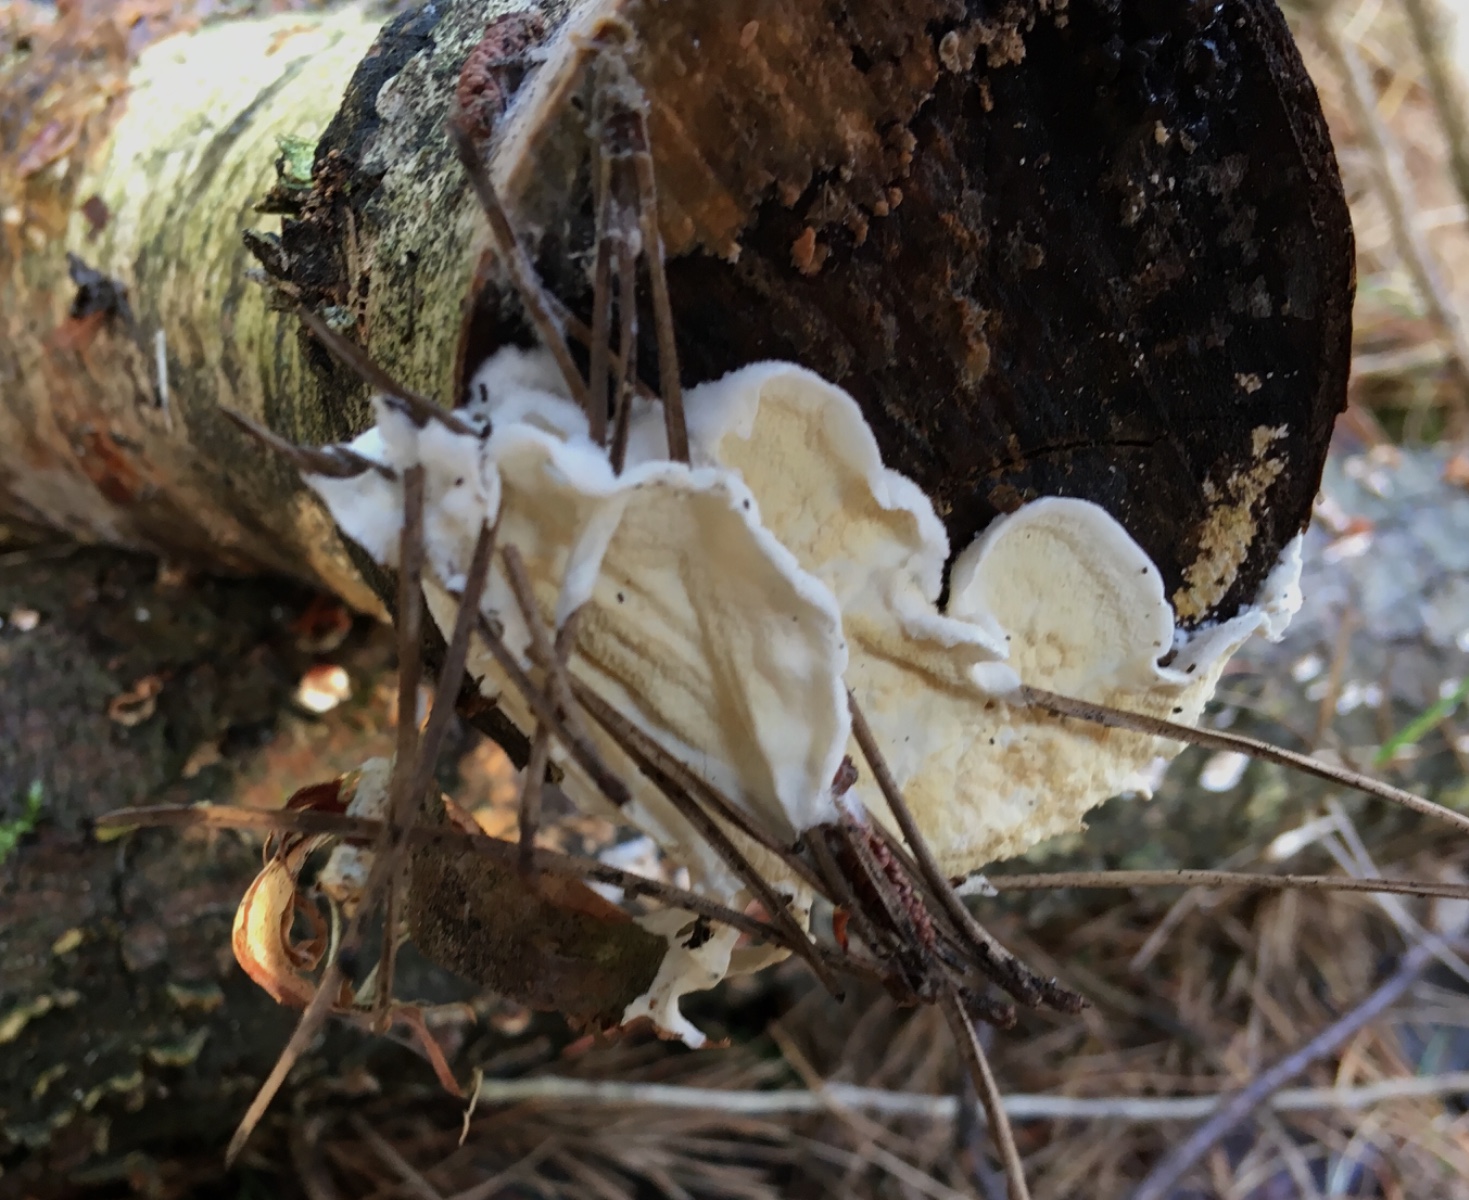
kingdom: Fungi
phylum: Basidiomycota
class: Agaricomycetes
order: Polyporales
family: Irpicaceae
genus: Byssomerulius
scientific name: Byssomerulius corium
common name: læder-åresvamp
